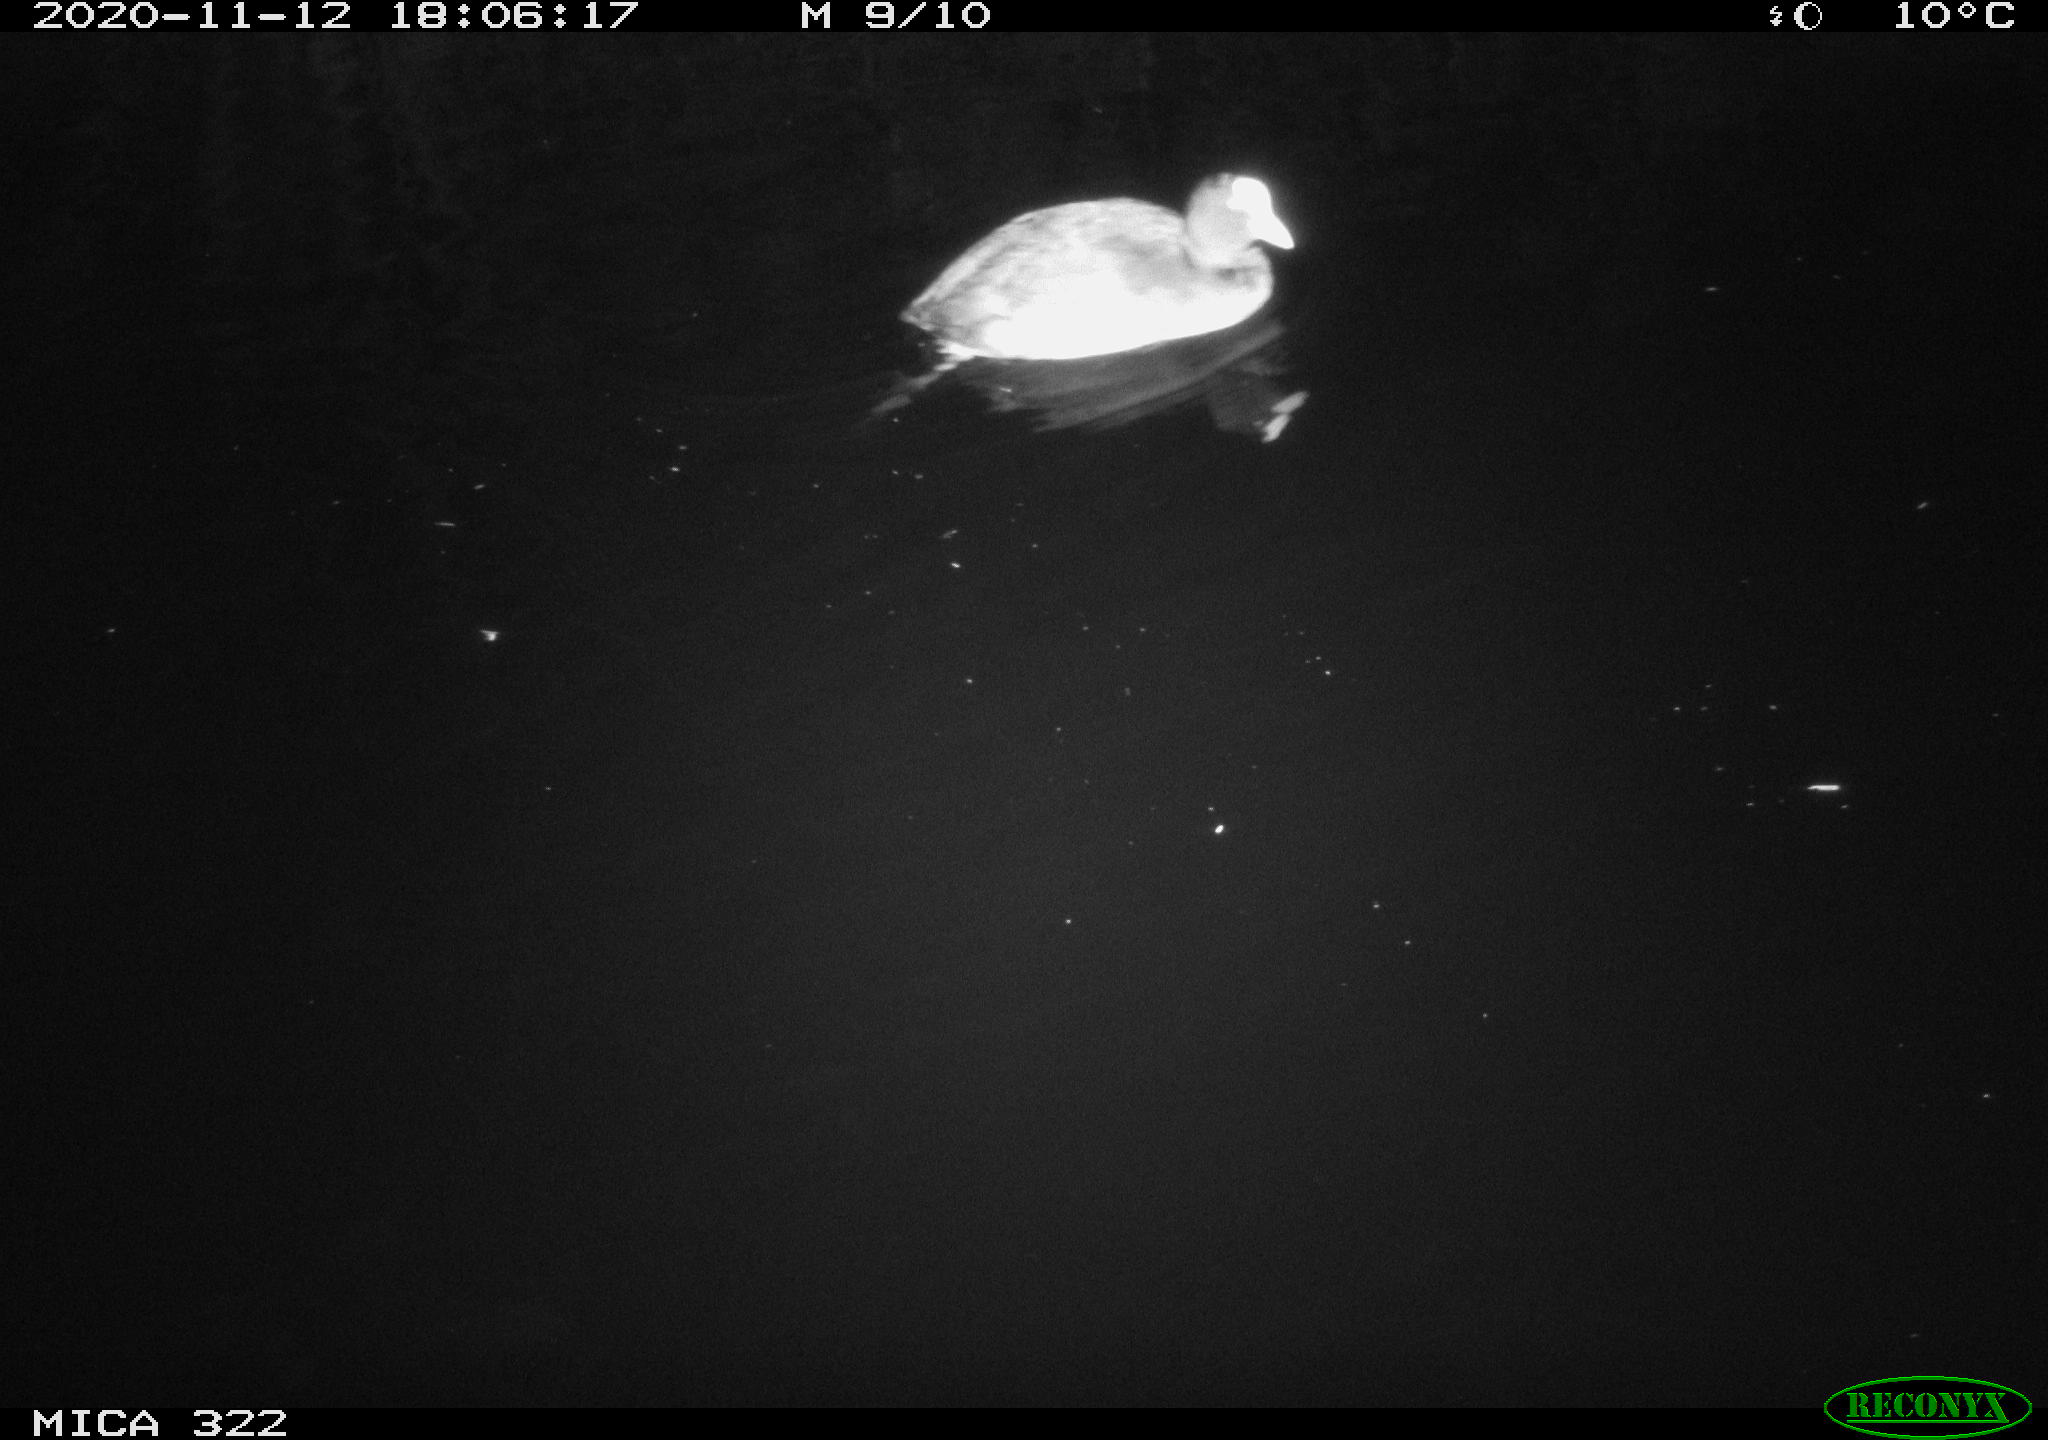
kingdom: Animalia
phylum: Chordata
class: Aves
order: Gruiformes
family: Rallidae
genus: Fulica
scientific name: Fulica atra
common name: Eurasian coot
